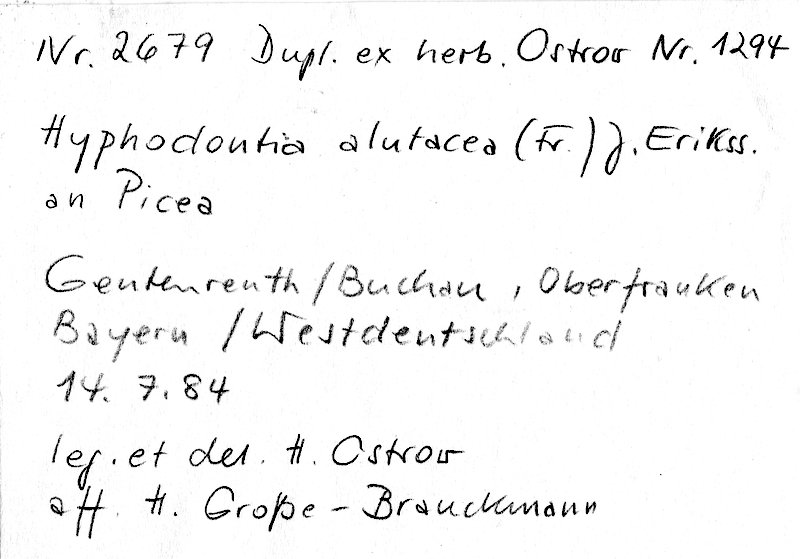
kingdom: Fungi
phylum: Basidiomycota
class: Agaricomycetes
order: Hymenochaetales
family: Schizoporaceae
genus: Alutaceodontia
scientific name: Alutaceodontia alutacea
